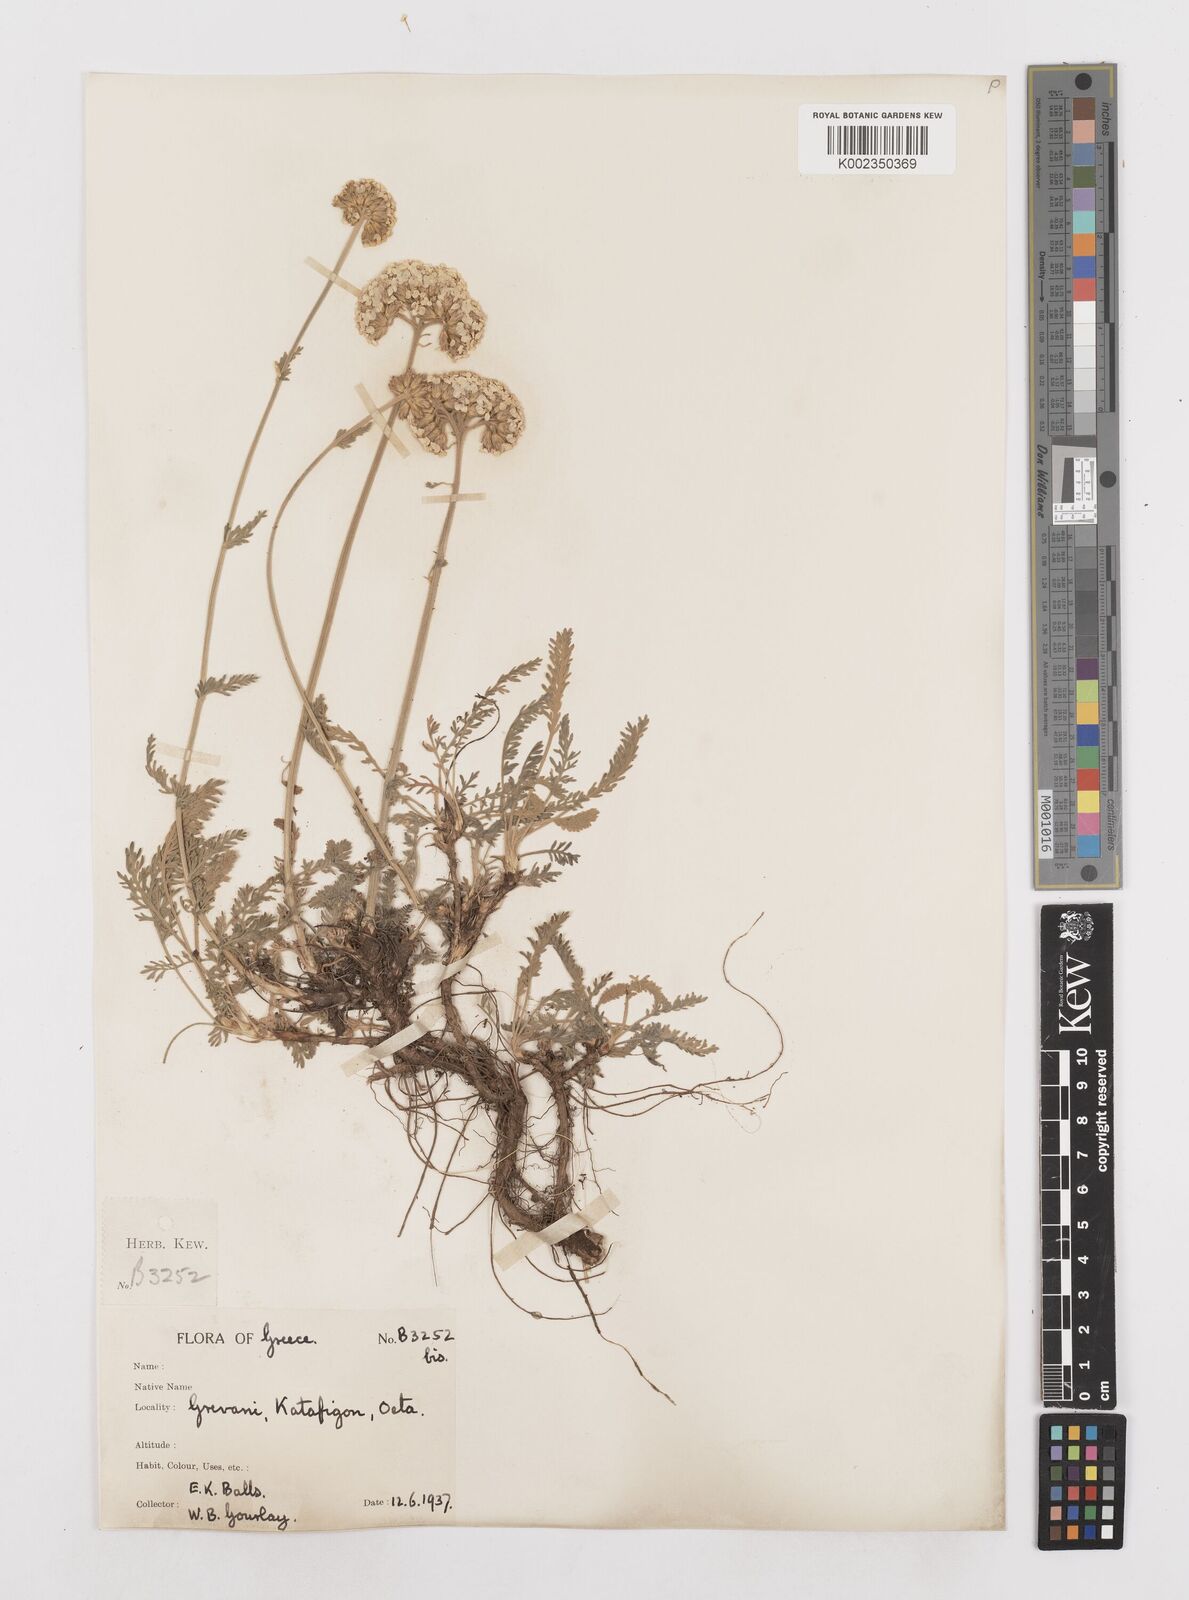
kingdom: Plantae
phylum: Tracheophyta
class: Magnoliopsida
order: Asterales
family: Asteraceae
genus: Achillea
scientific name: Achillea fraasii
